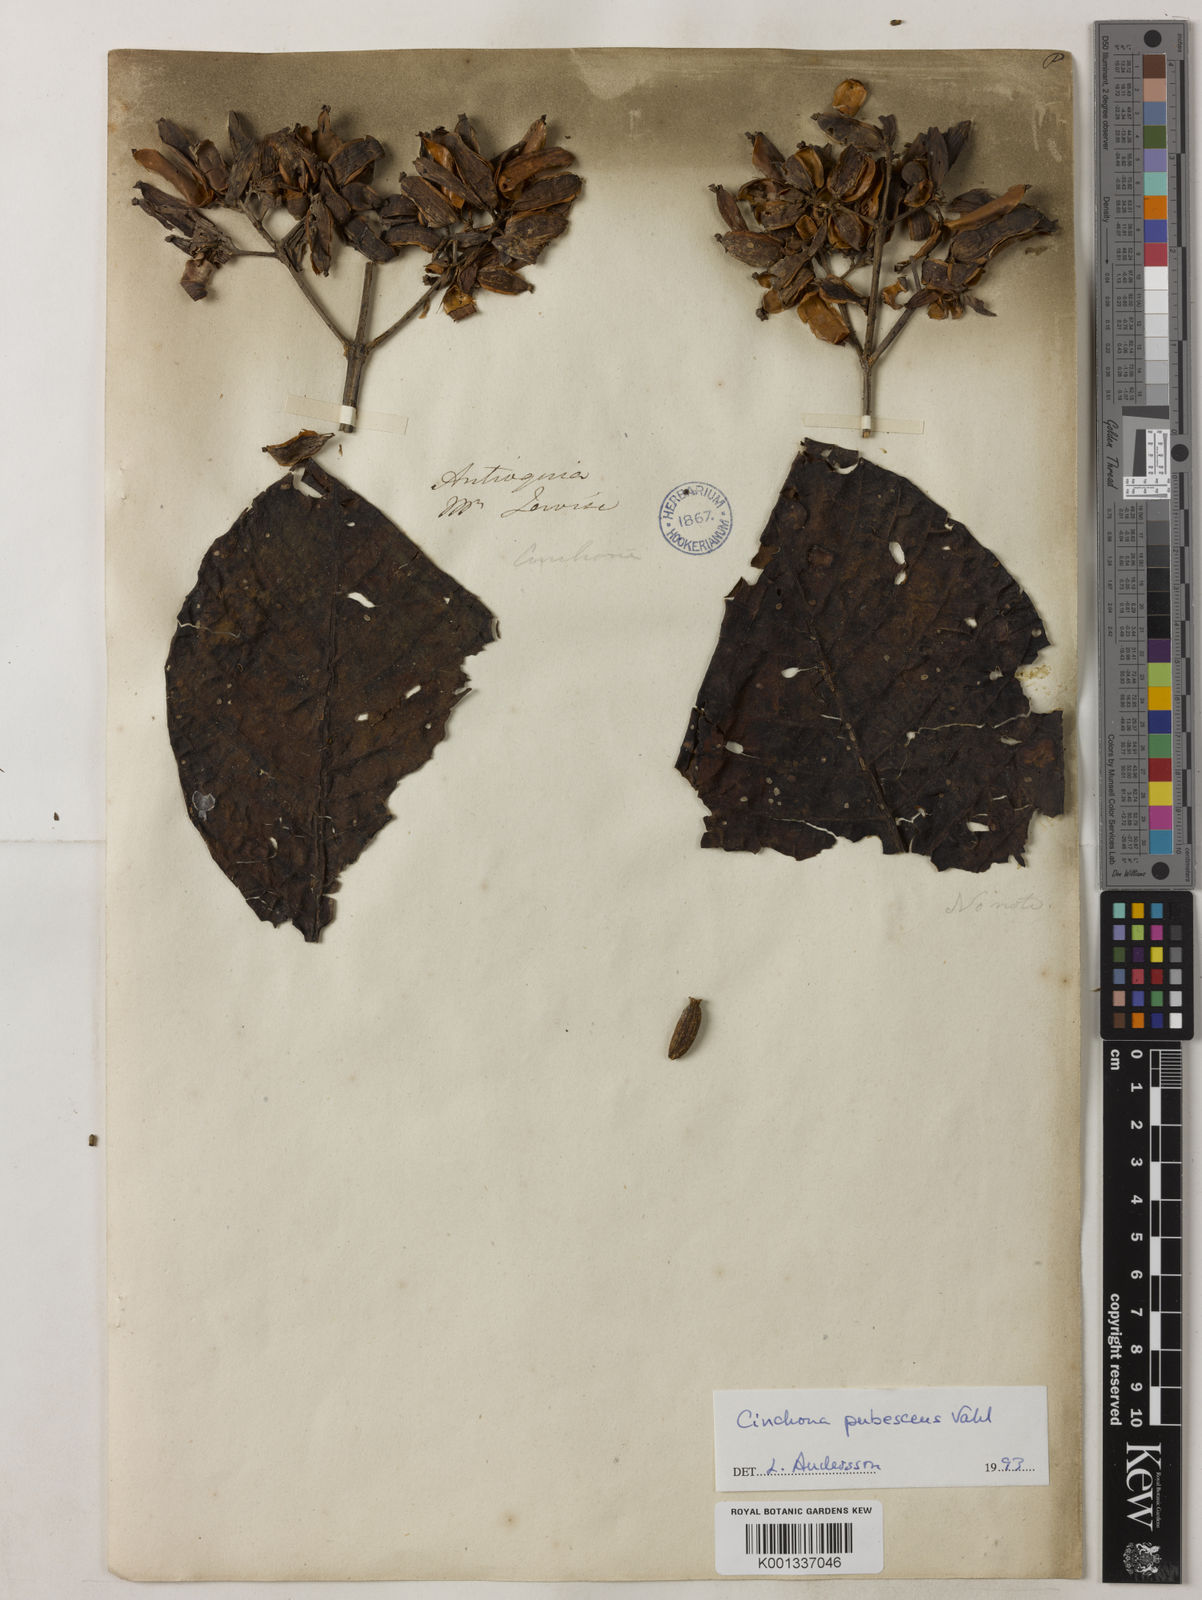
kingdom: Plantae
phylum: Tracheophyta
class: Magnoliopsida
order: Gentianales
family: Rubiaceae
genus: Cinchona
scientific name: Cinchona pubescens
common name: Quinine
